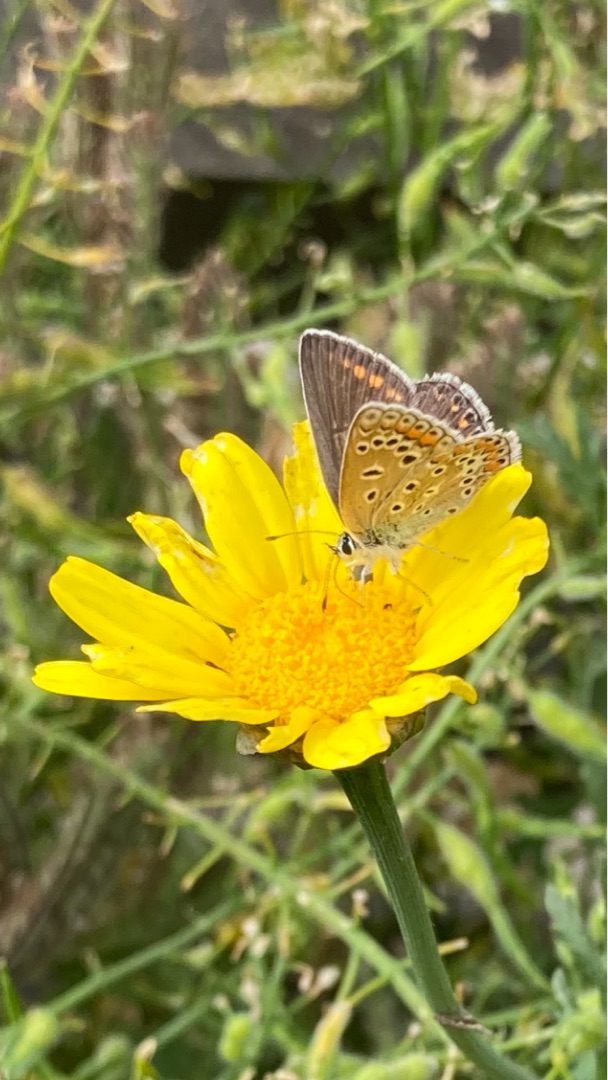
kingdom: Animalia
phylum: Arthropoda
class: Insecta
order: Lepidoptera
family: Lycaenidae
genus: Polyommatus
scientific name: Polyommatus icarus
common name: Almindelig blåfugl
